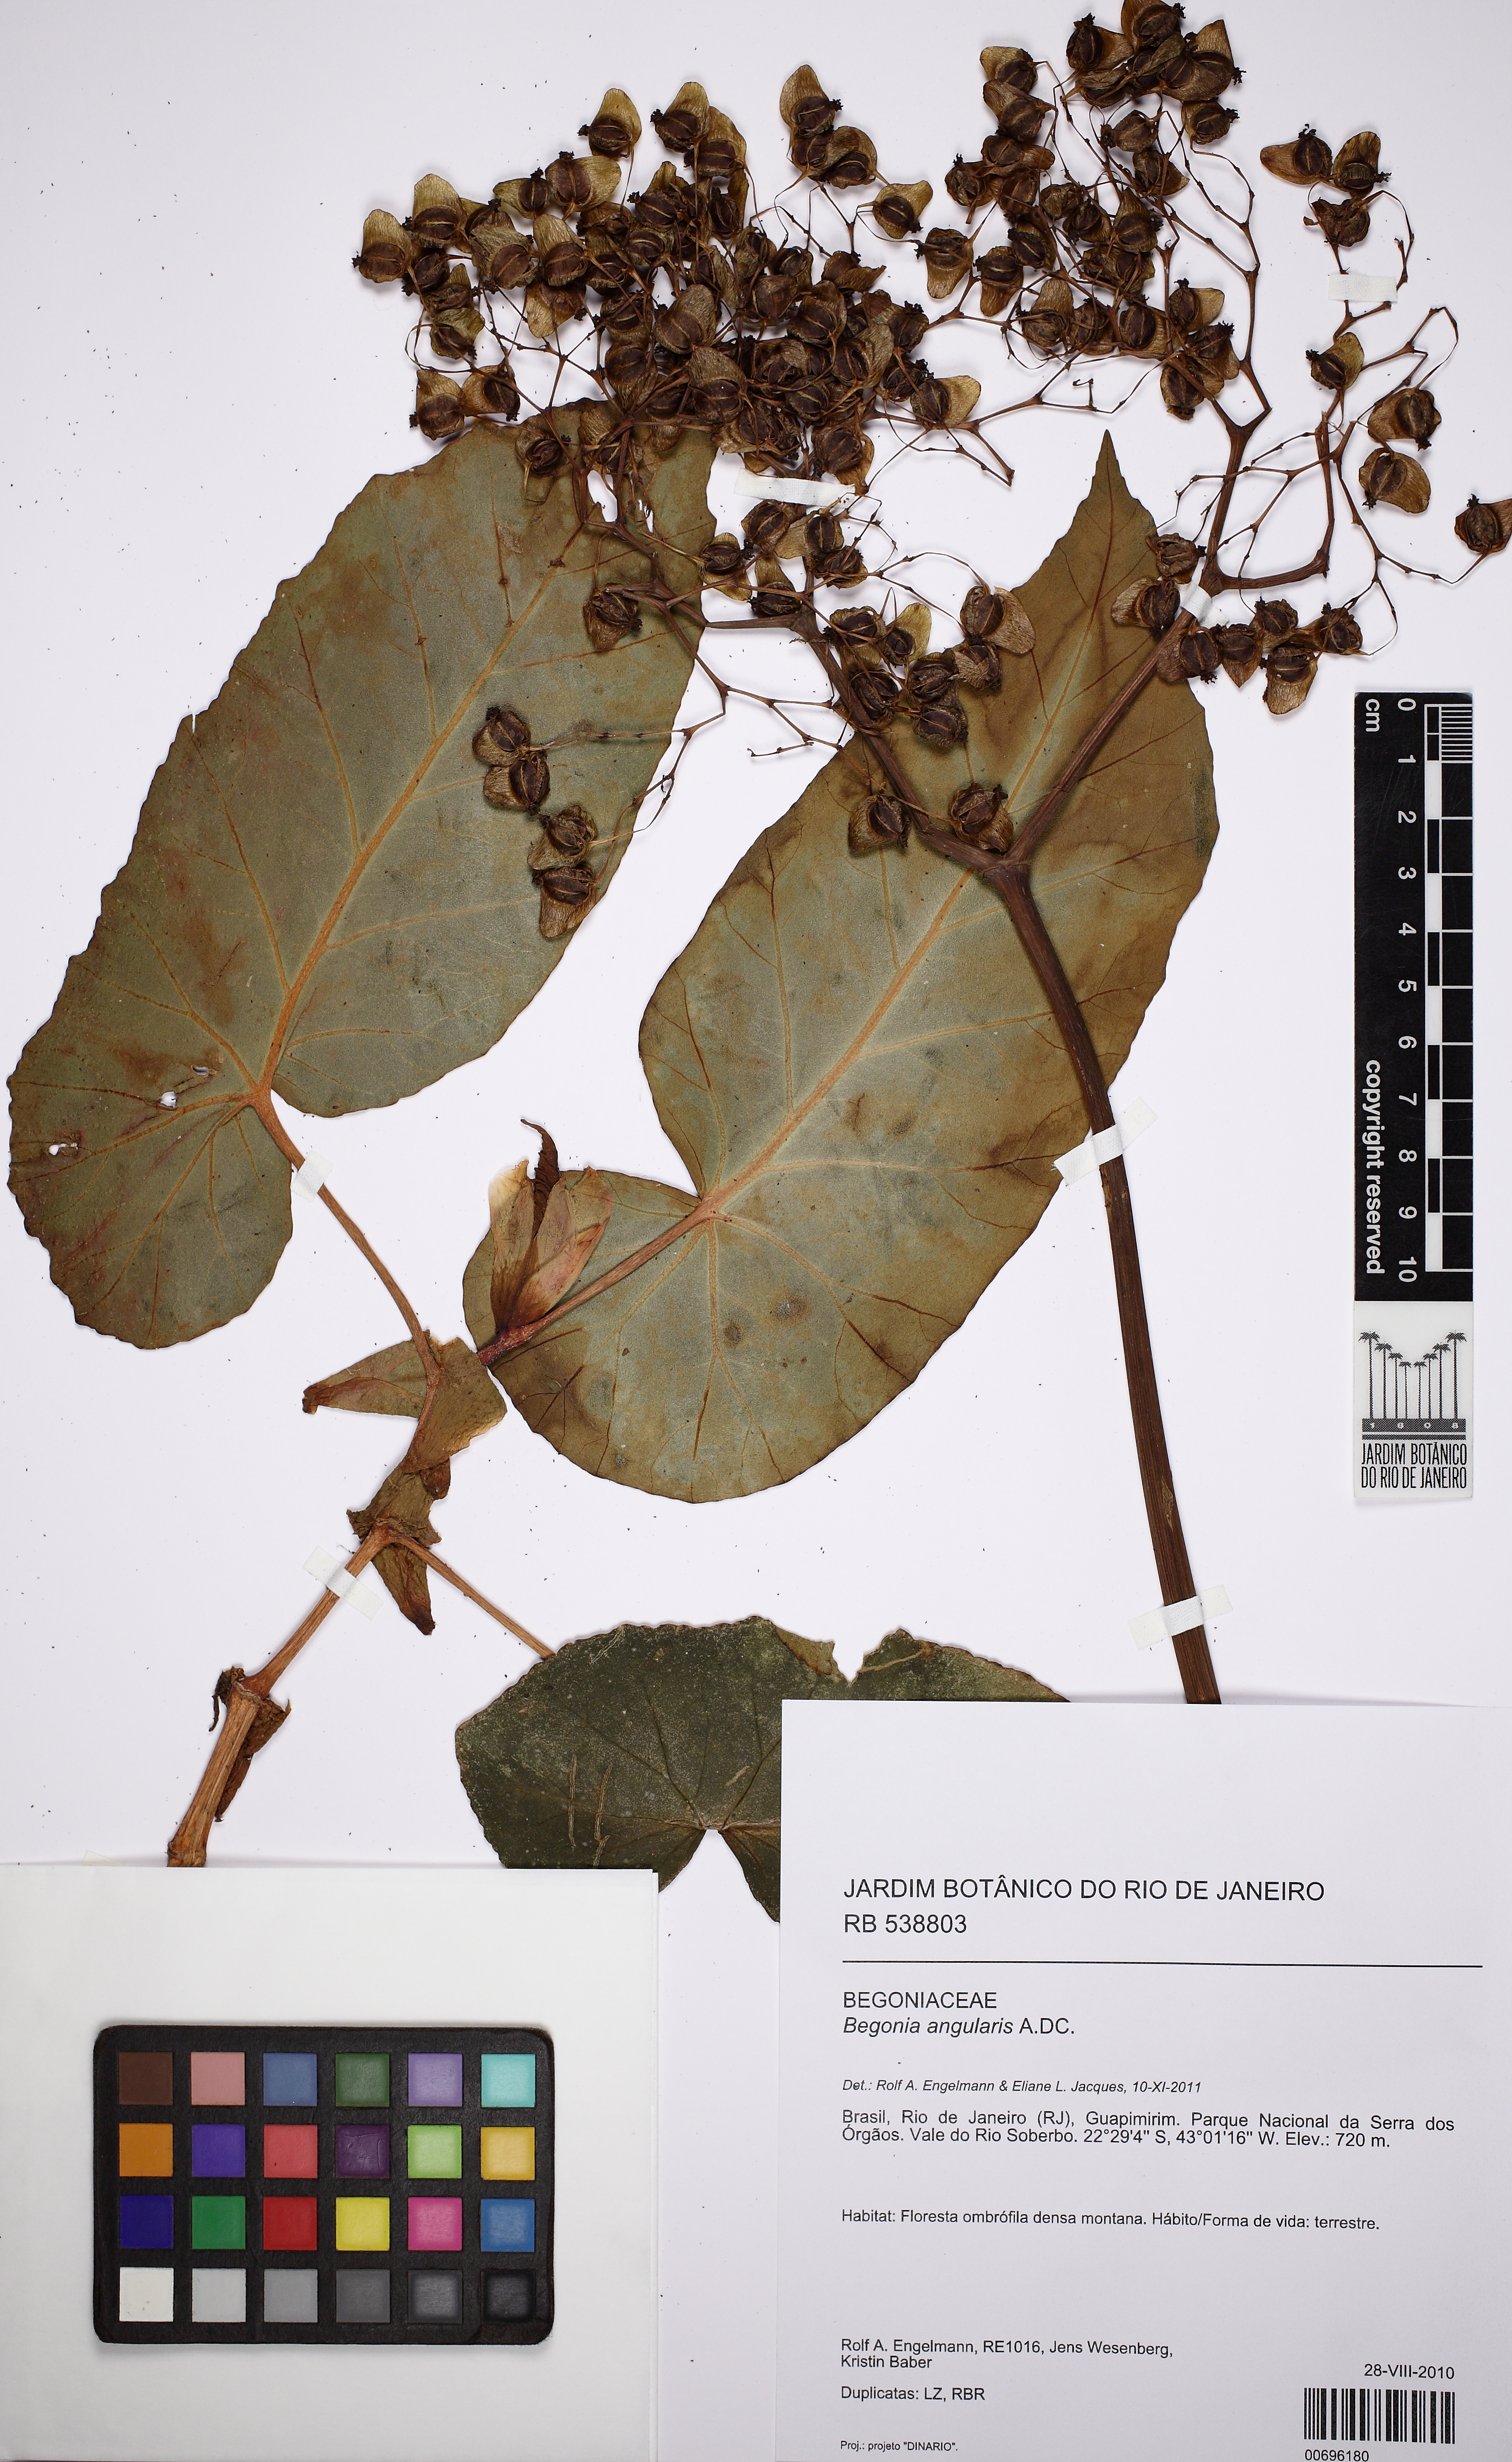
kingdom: Plantae
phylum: Tracheophyta
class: Magnoliopsida
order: Cucurbitales
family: Begoniaceae
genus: Begonia
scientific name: Begonia angularis
